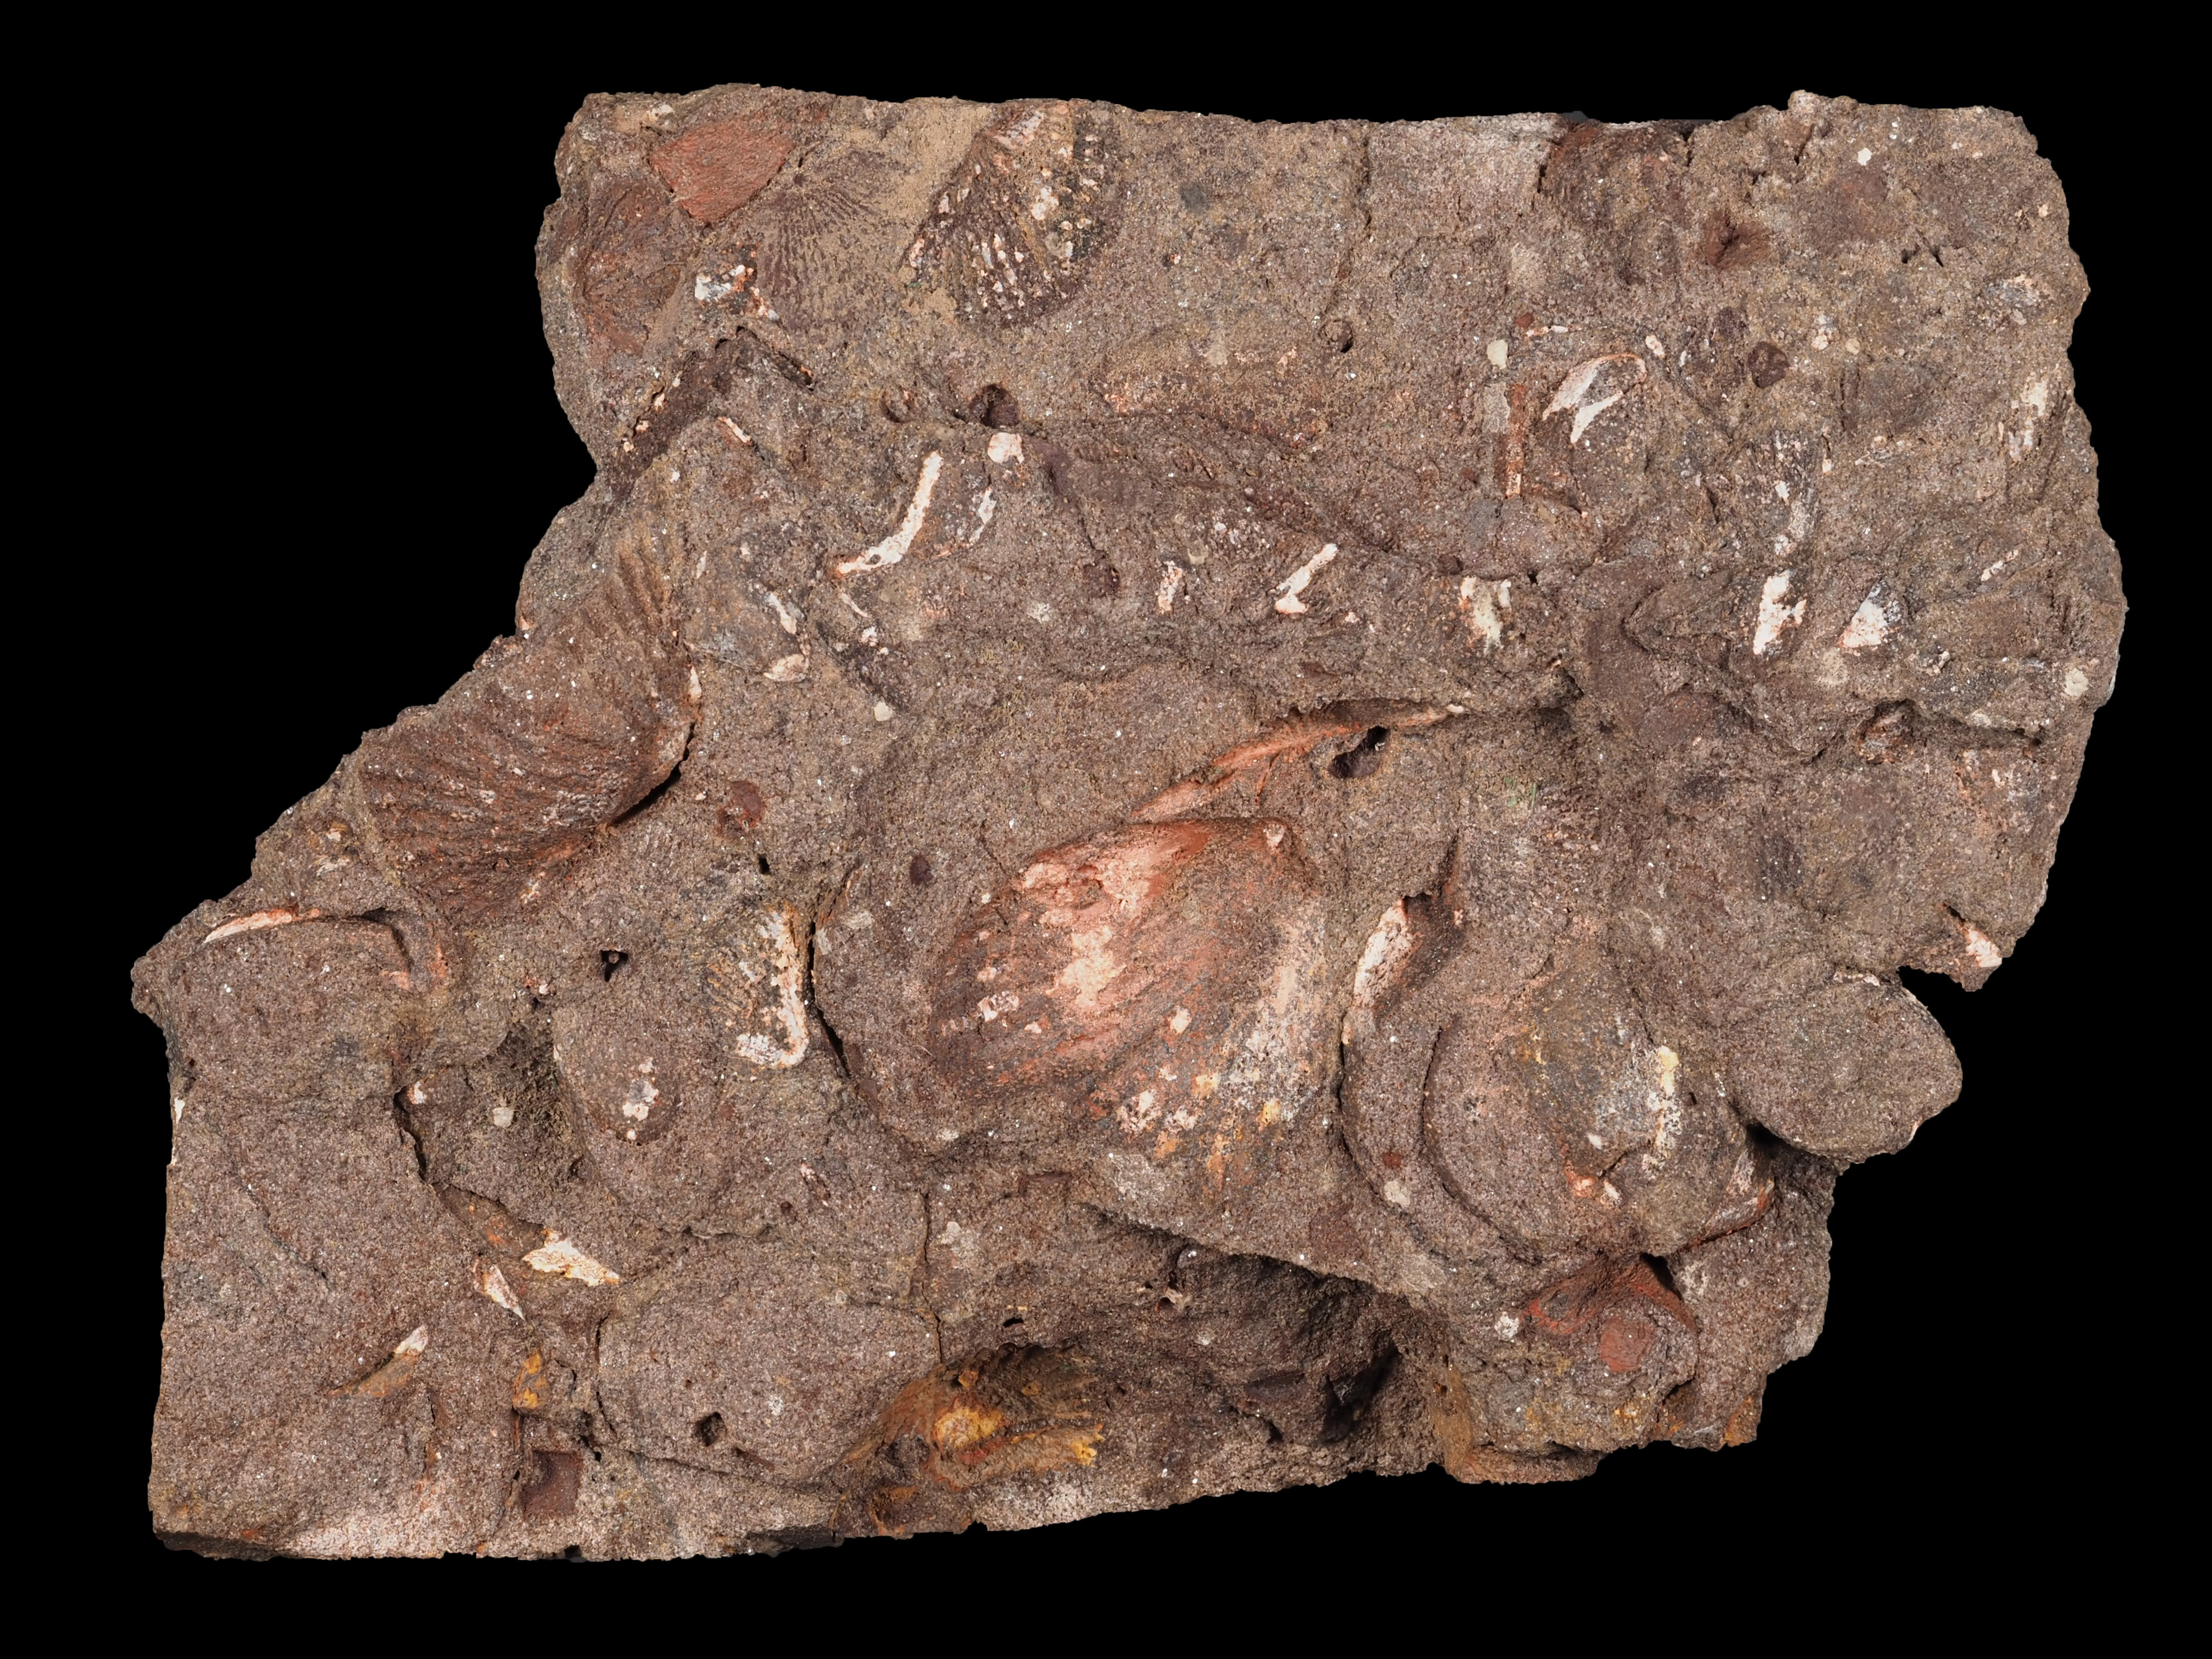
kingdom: Animalia
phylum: Brachiopoda
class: Rhynchonellata
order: Rhynchonellida
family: Trigonirhynchiidae
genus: Oligoptycherhynchus
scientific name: Oligoptycherhynchus
